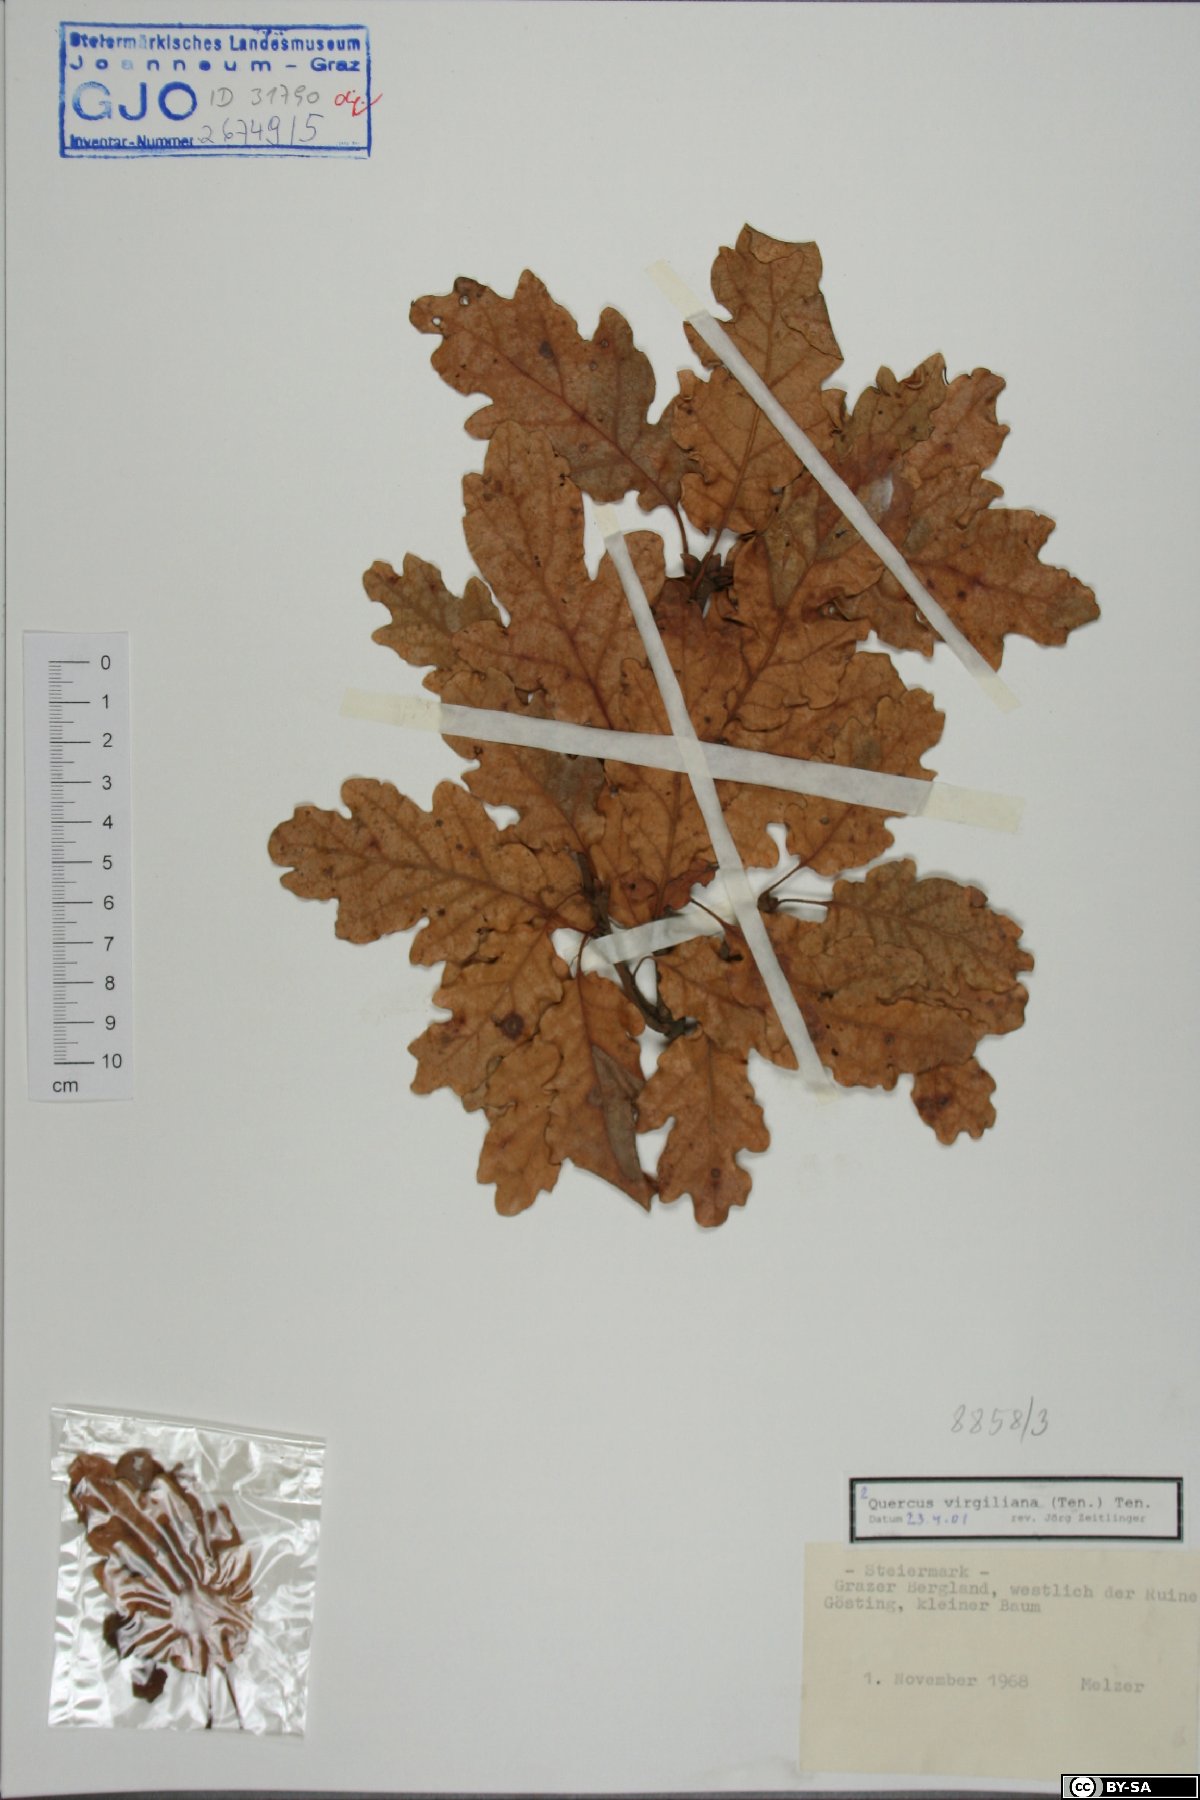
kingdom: Plantae
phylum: Tracheophyta
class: Magnoliopsida
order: Fagales
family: Fagaceae
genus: Quercus
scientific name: Quercus pubescens
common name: Downy oak
